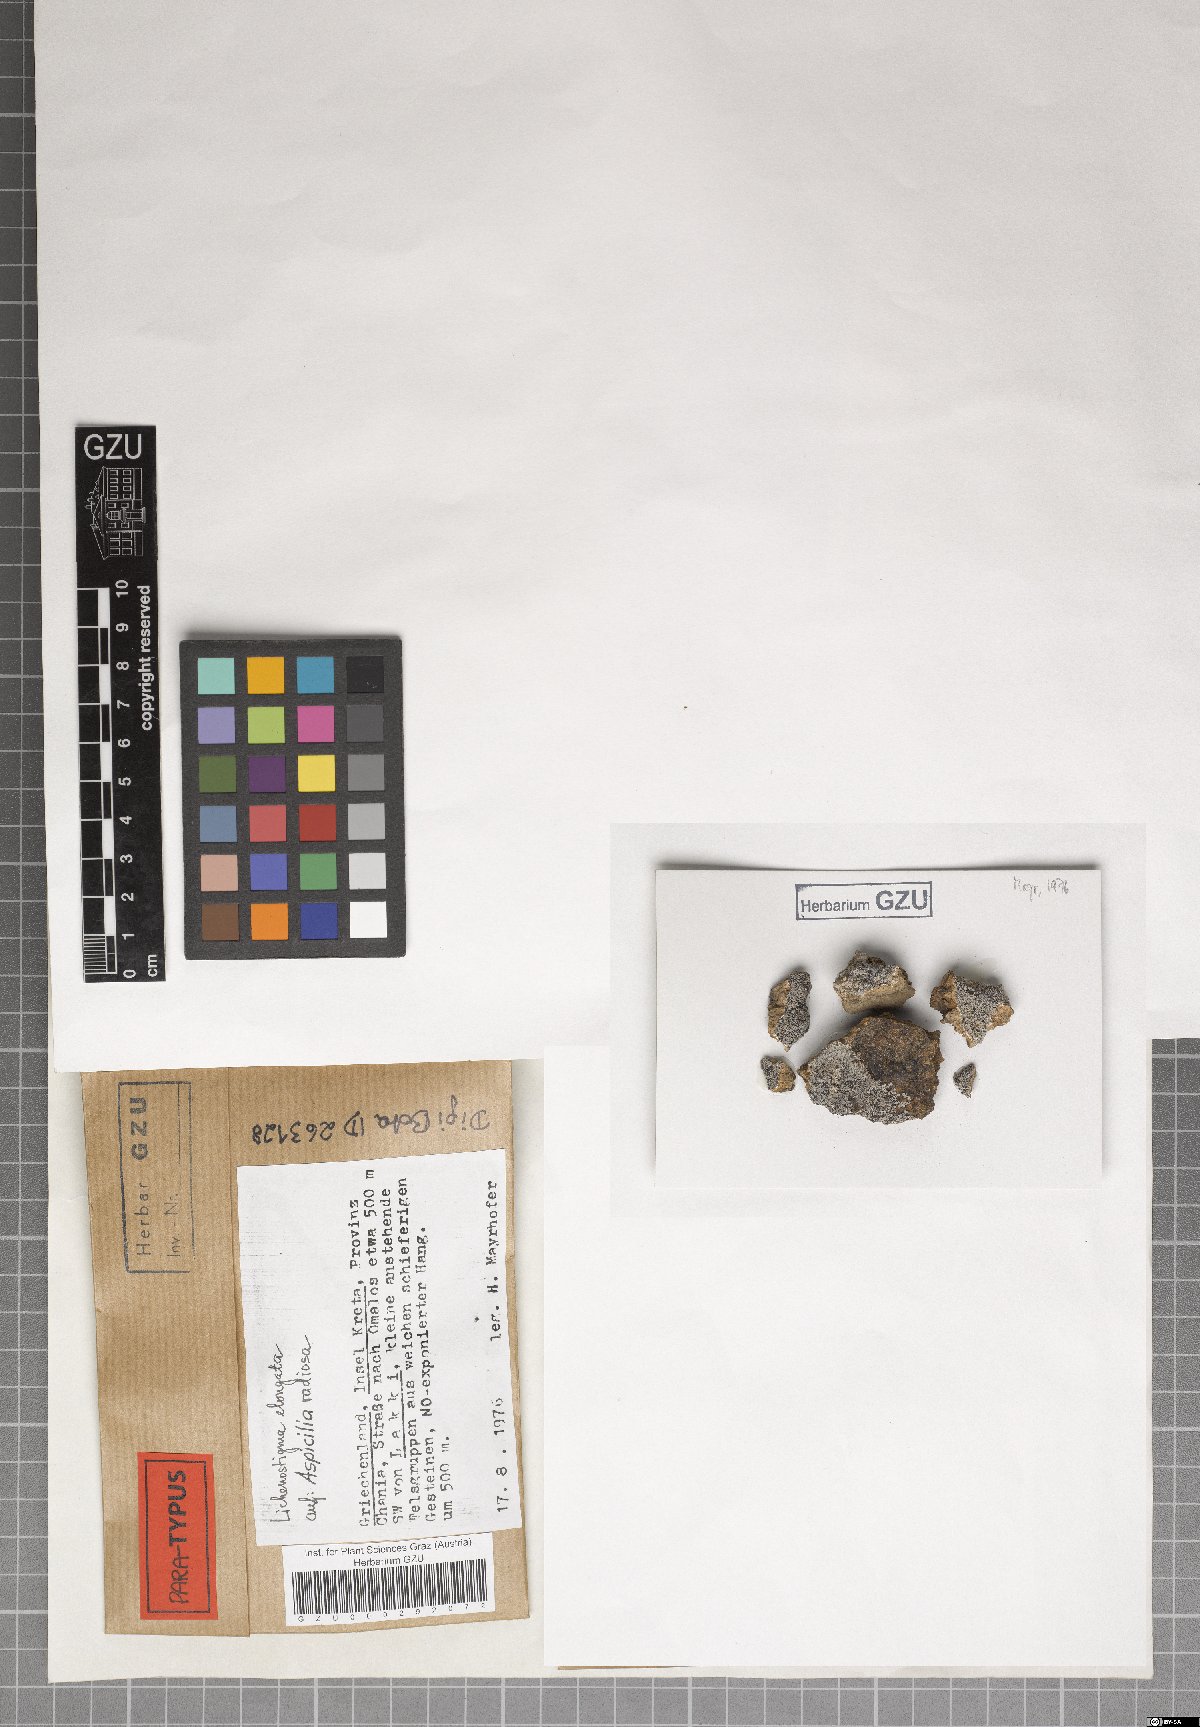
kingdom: Fungi
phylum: Ascomycota
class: Arthoniomycetes
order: Lichenostigmatales
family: Phaeococcomycetaceae
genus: Lichenostigma
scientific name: Lichenostigma elongatum
